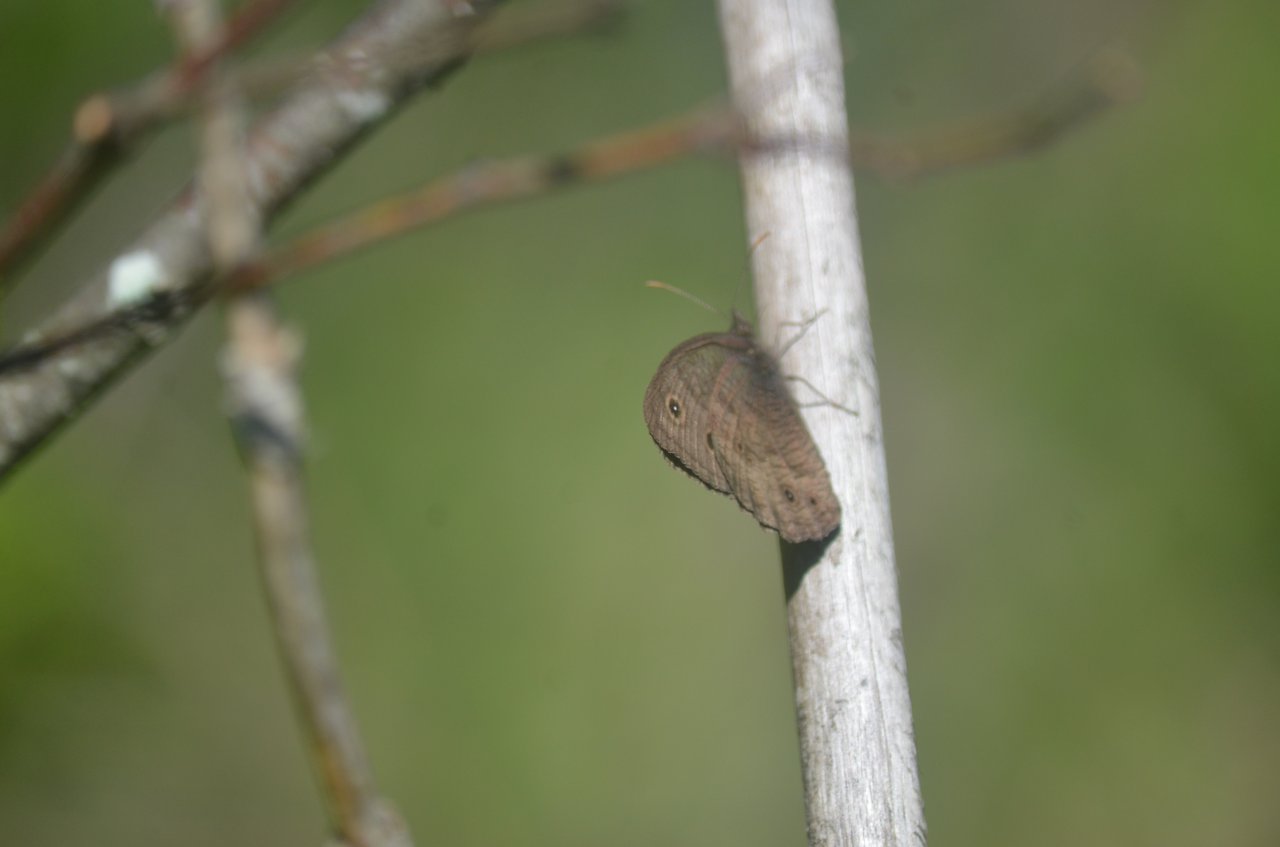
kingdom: Animalia
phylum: Arthropoda
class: Insecta
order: Lepidoptera
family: Nymphalidae
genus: Cercyonis
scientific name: Cercyonis pegala
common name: Common Wood-Nymph
